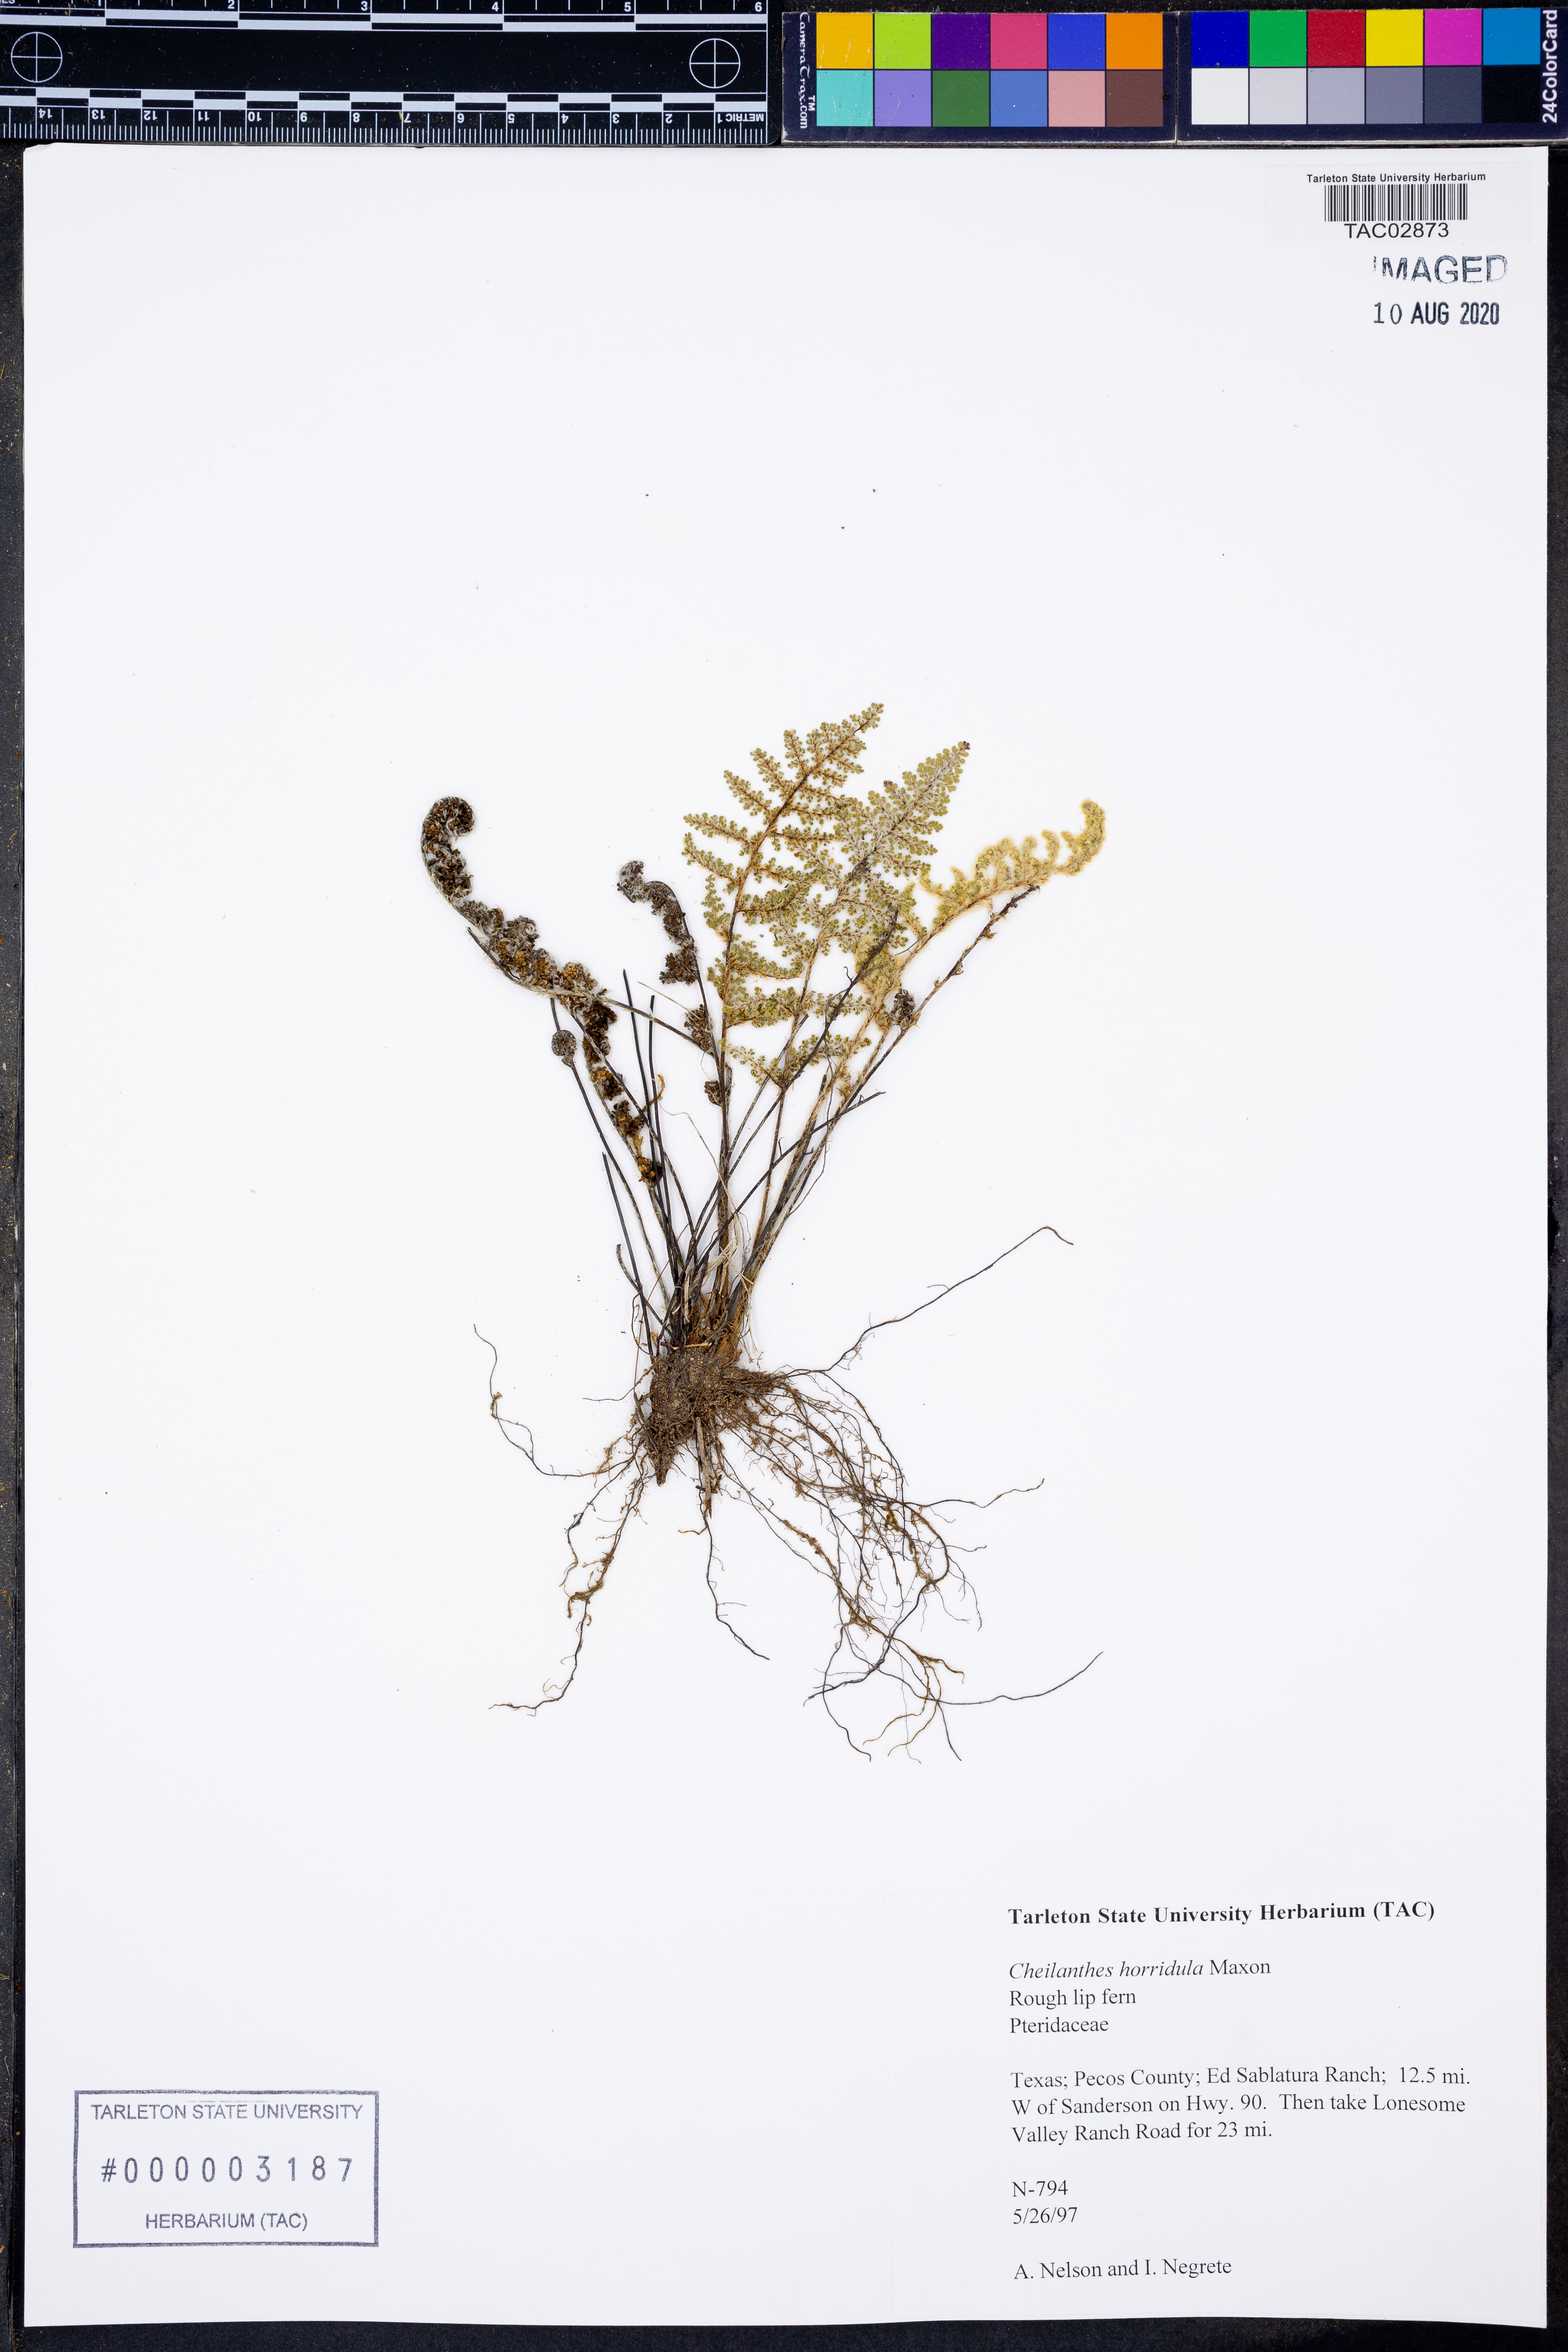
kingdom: Plantae
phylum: Tracheophyta
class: Polypodiopsida
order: Polypodiales
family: Pteridaceae
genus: Myriopteris
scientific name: Myriopteris scabra
